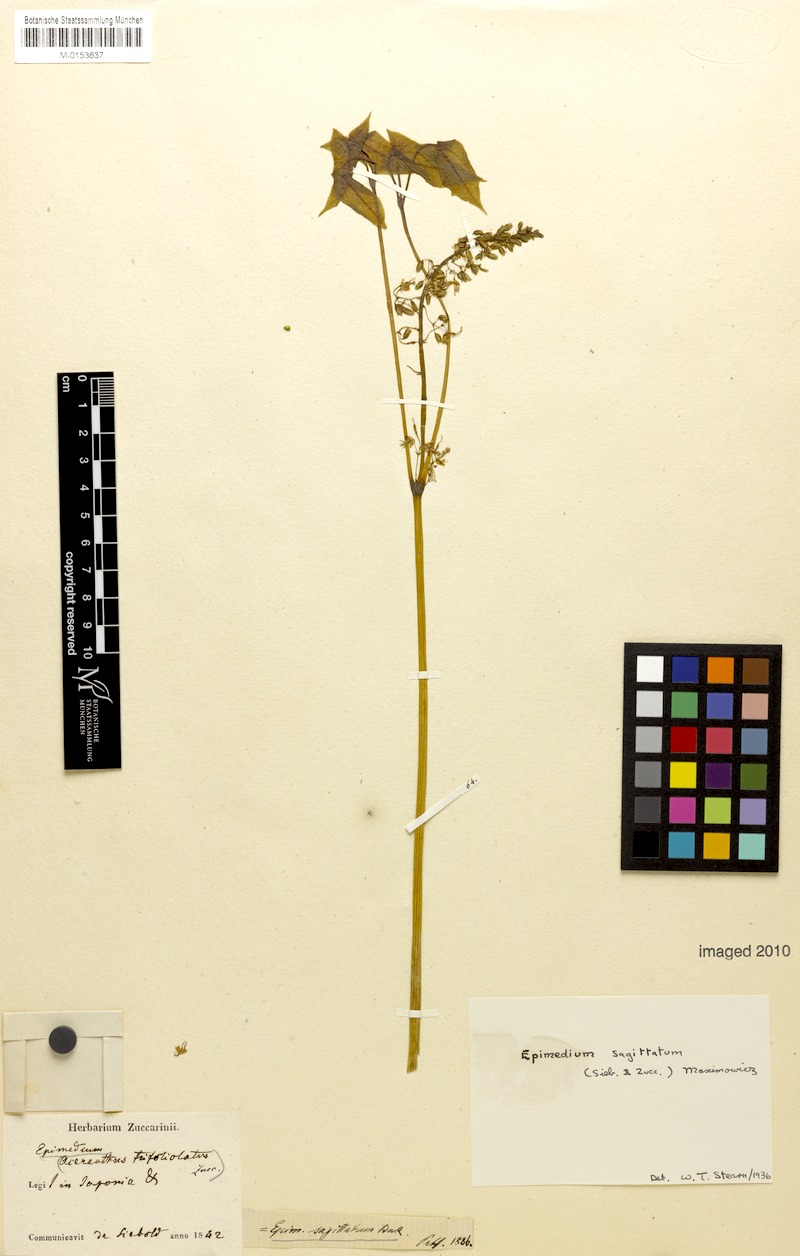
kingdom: Plantae
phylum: Tracheophyta
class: Magnoliopsida
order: Ranunculales
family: Berberidaceae
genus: Epimedium
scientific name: Epimedium sagittatum
